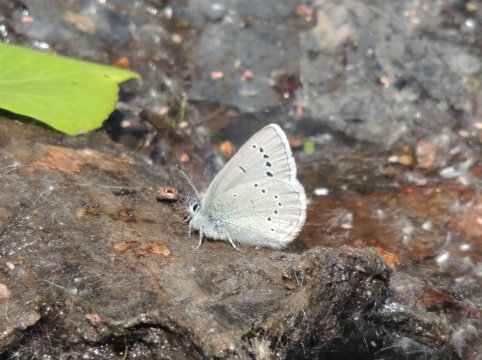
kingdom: Animalia
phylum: Arthropoda
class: Insecta
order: Lepidoptera
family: Lycaenidae
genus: Glaucopsyche
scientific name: Glaucopsyche lygdamus
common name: Silvery Blue
